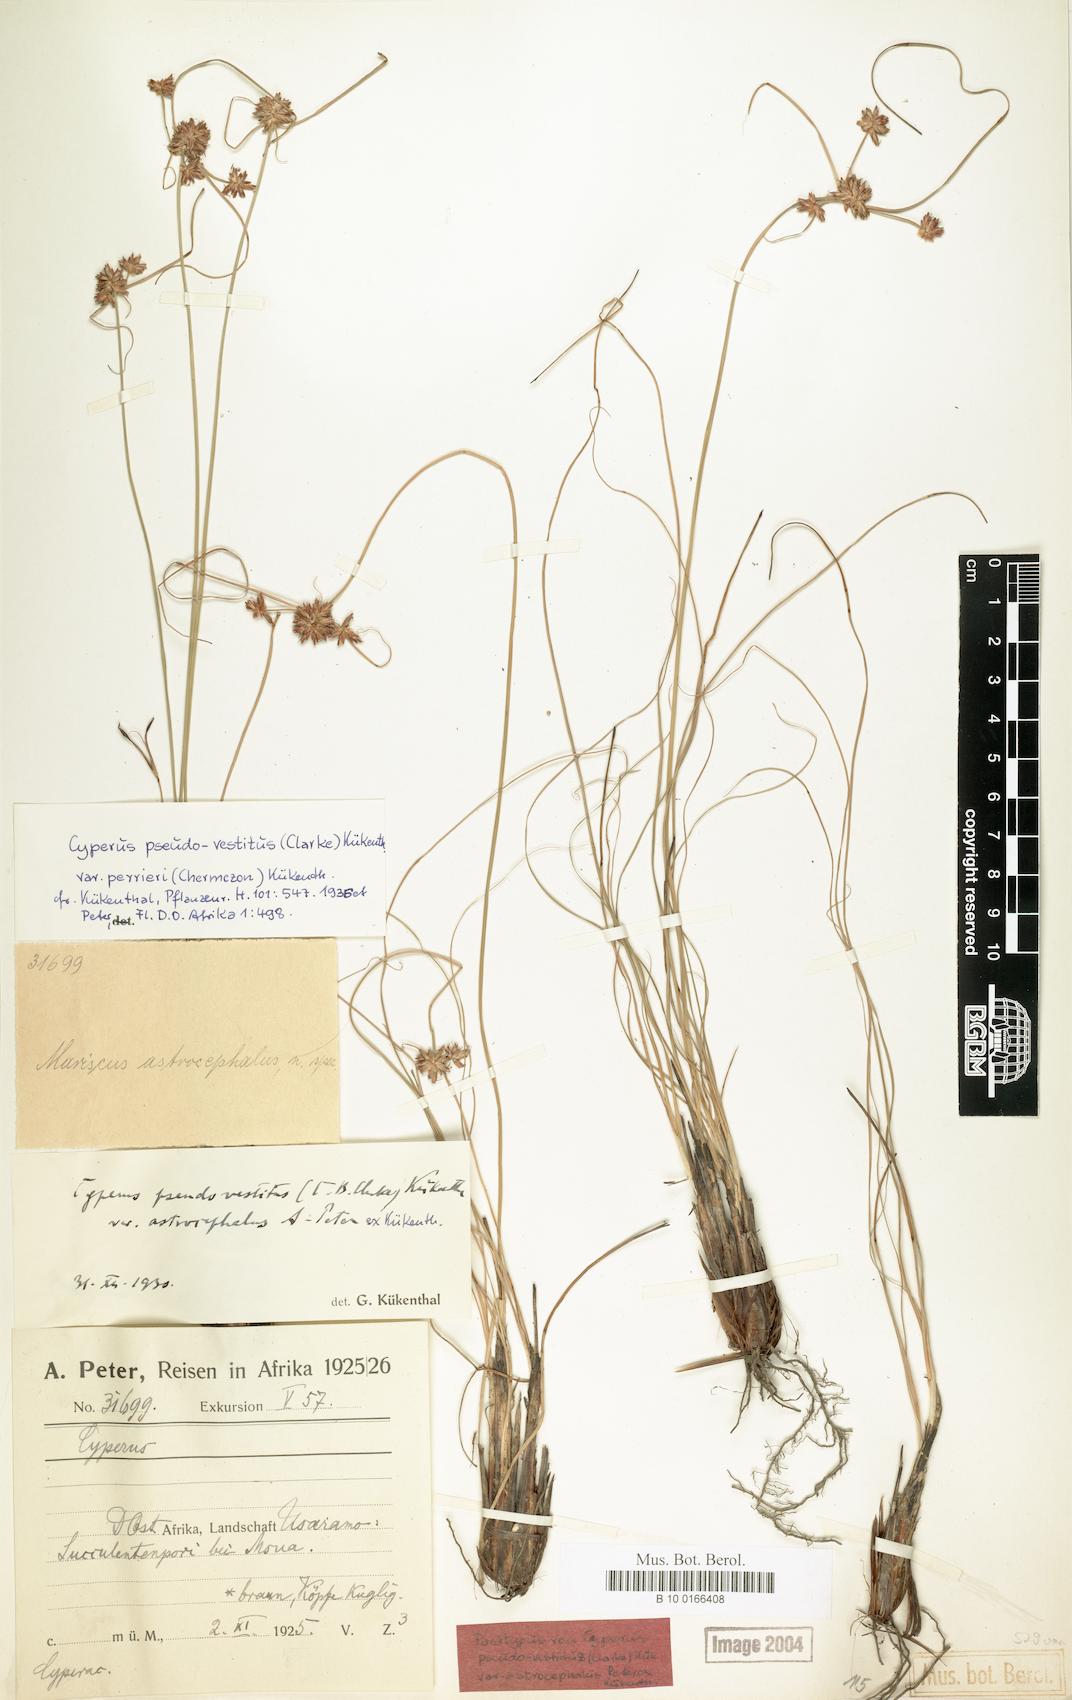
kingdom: Plantae
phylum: Tracheophyta
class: Liliopsida
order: Poales
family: Cyperaceae
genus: Cyperus
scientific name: Cyperus perrieri
